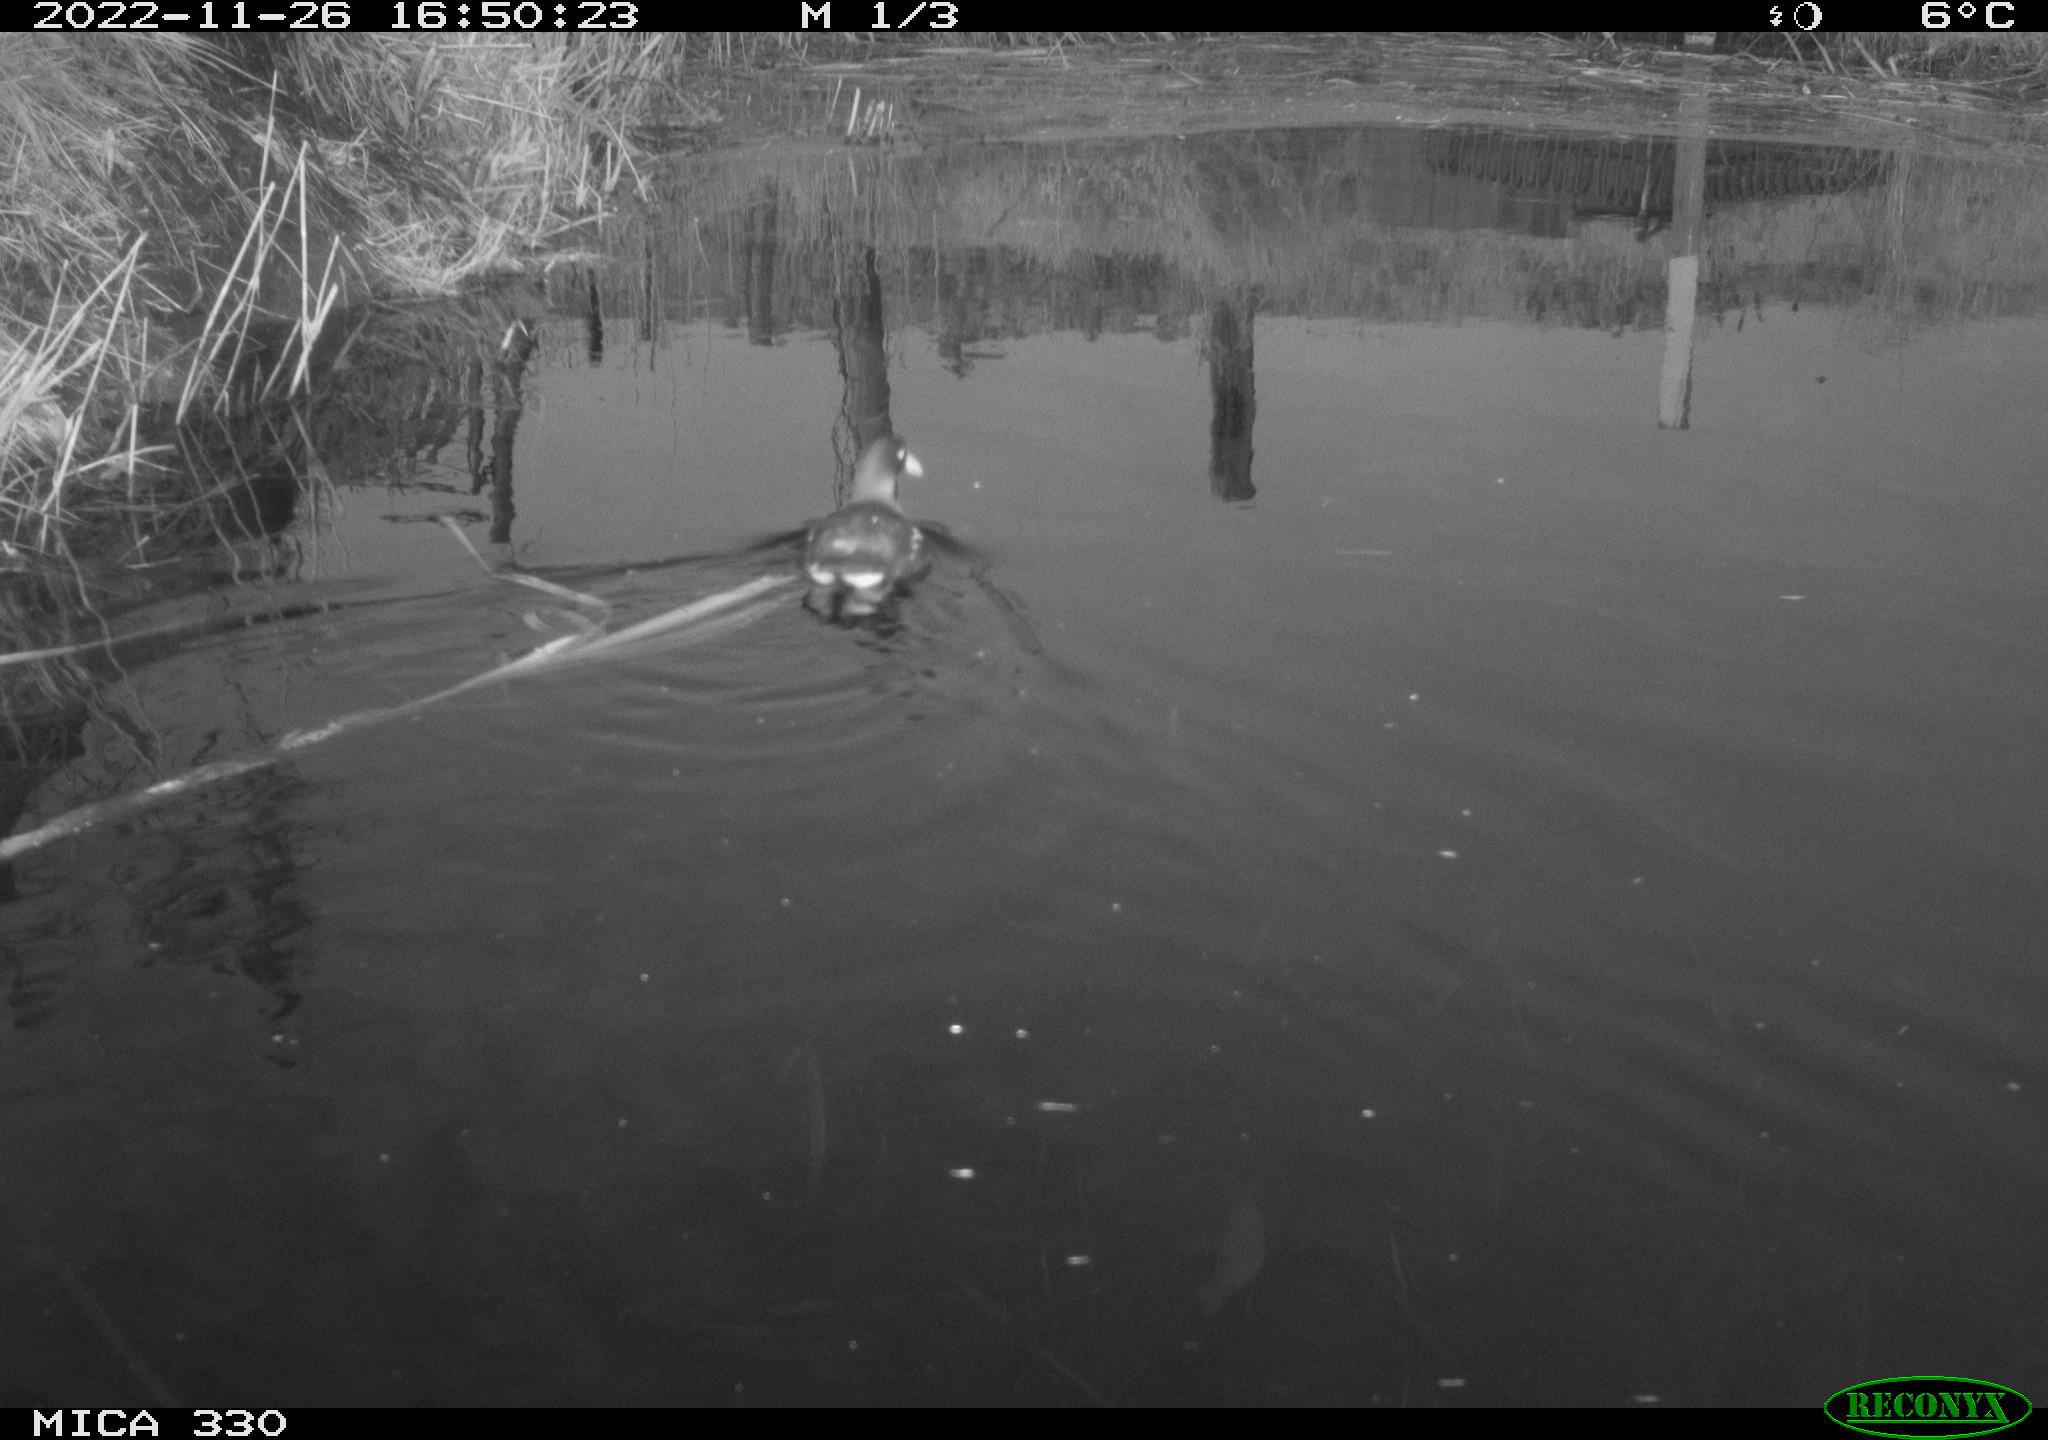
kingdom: Animalia
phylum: Chordata
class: Aves
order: Gruiformes
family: Rallidae
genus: Gallinula
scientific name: Gallinula chloropus
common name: Common moorhen
